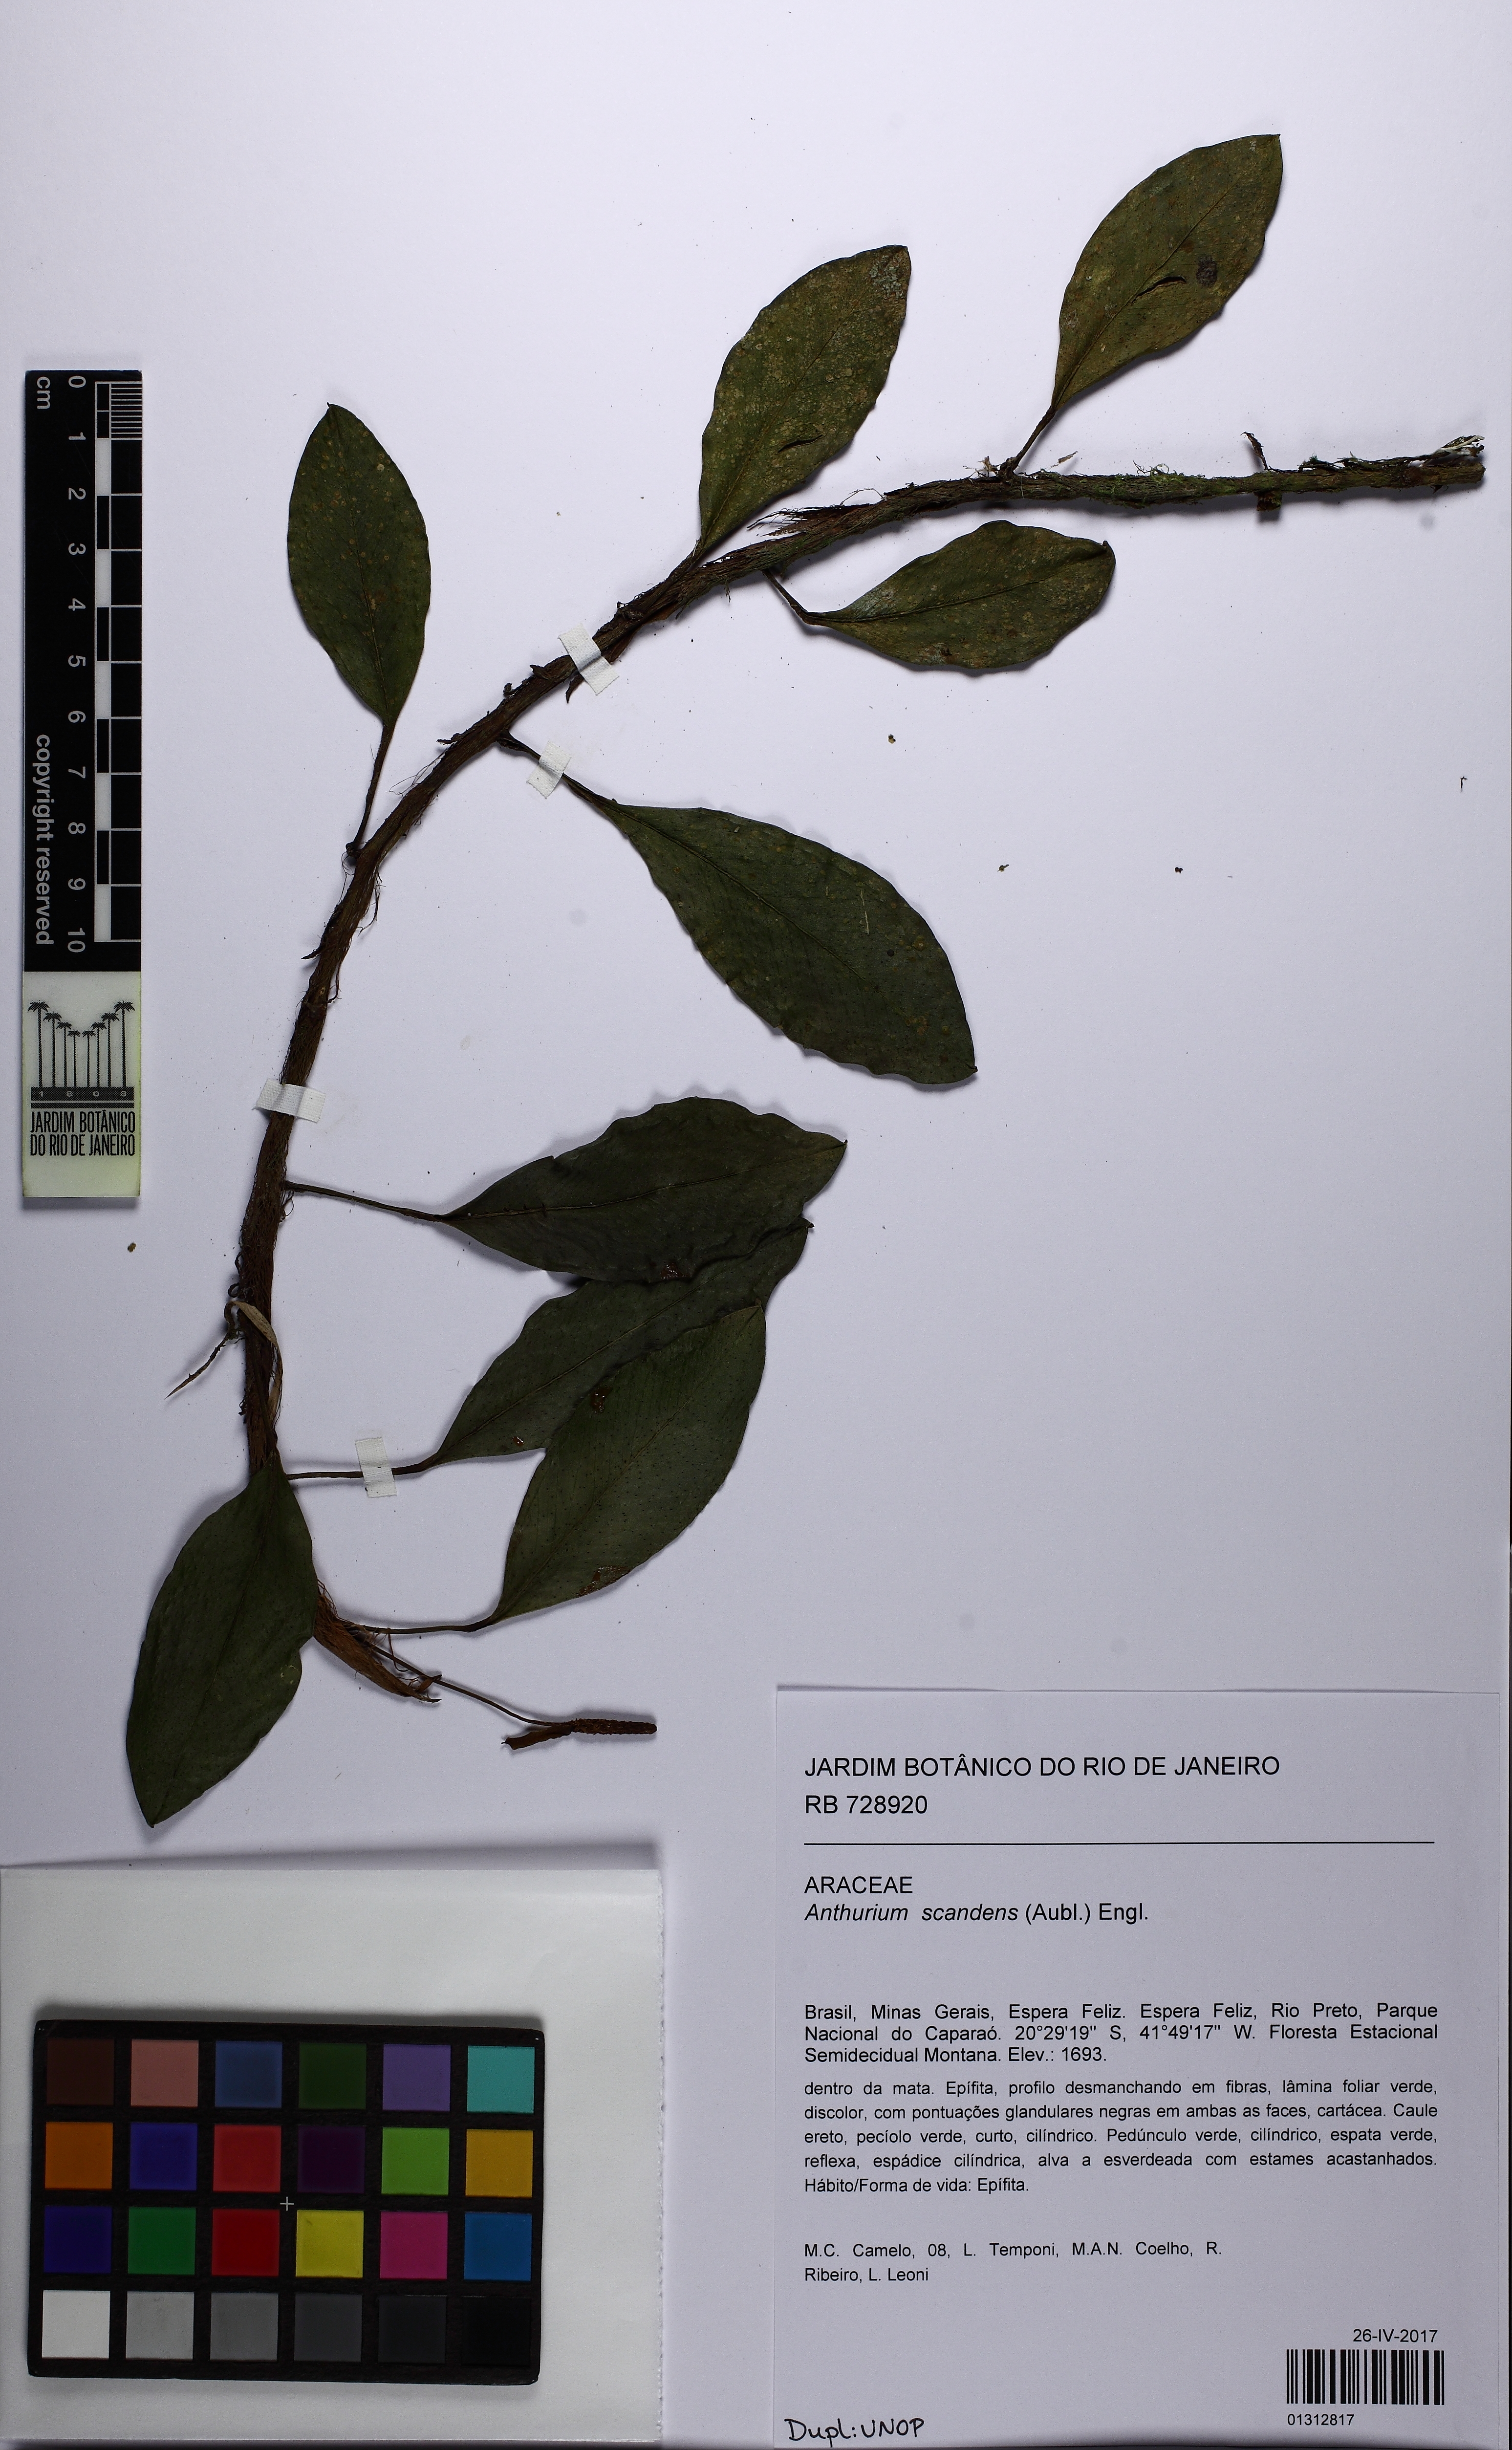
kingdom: Plantae
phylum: Tracheophyta
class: Liliopsida
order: Alismatales
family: Araceae
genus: Anthurium
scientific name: Anthurium scandens
